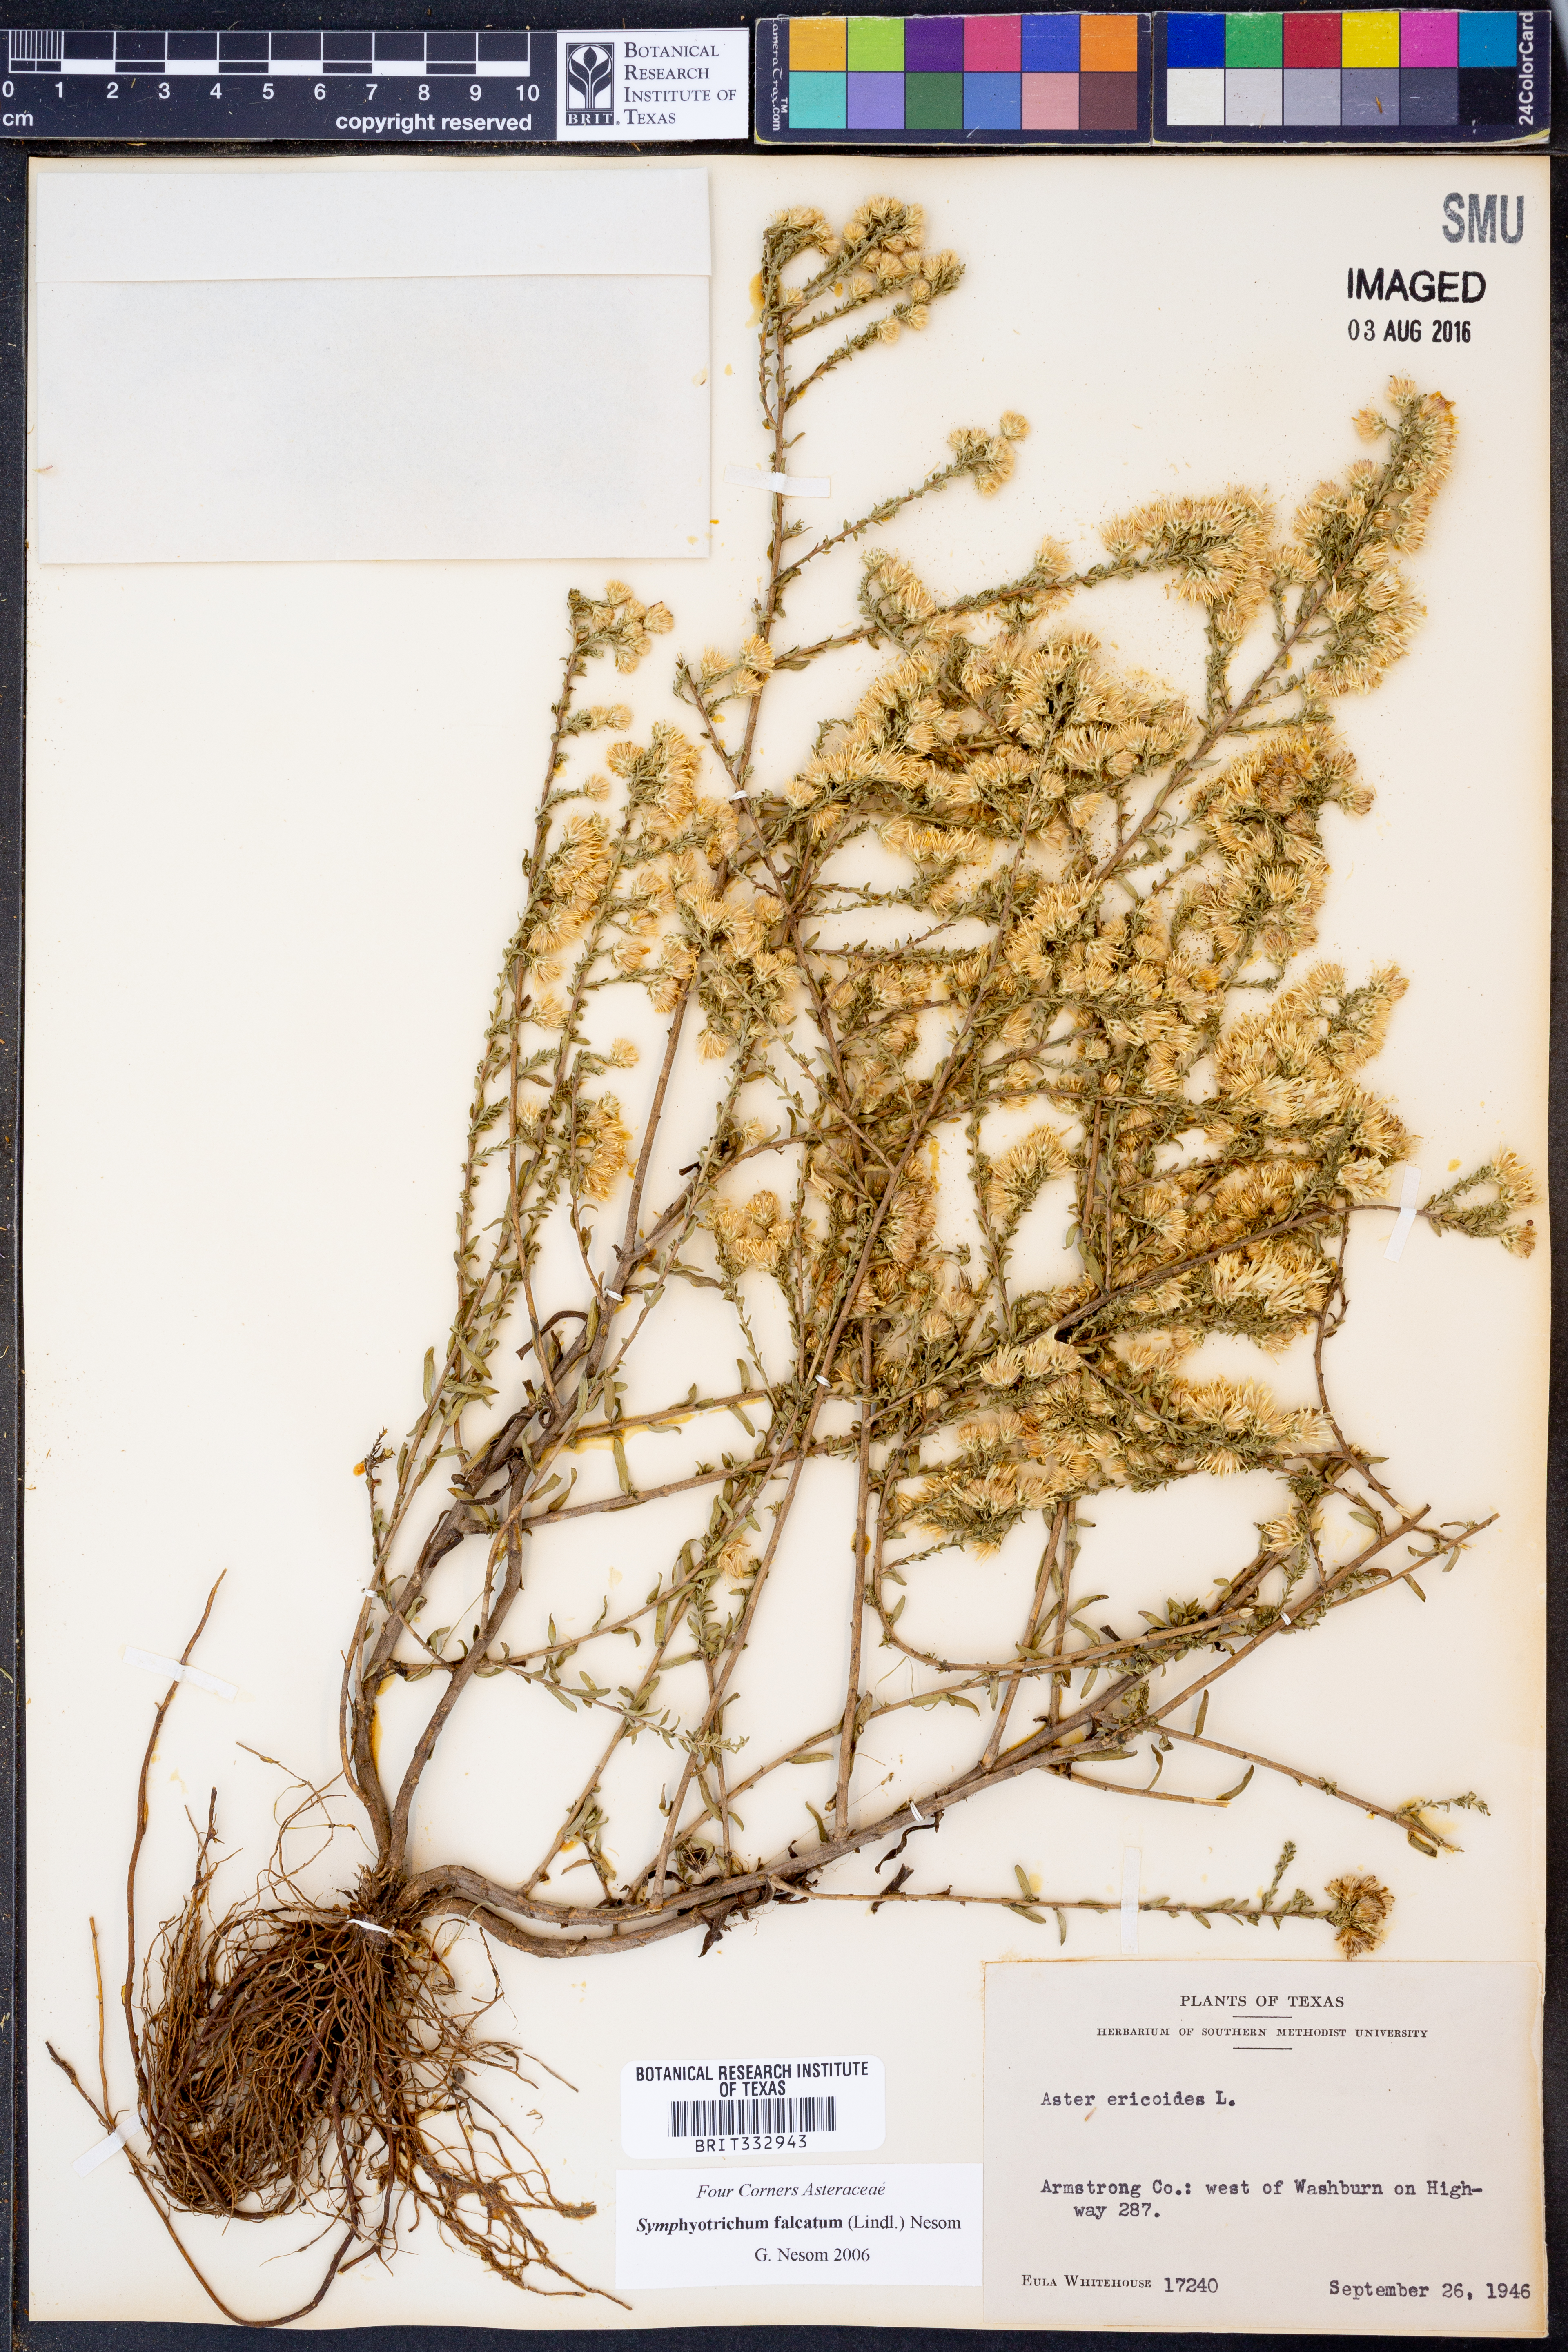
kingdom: Plantae
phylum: Tracheophyta
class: Magnoliopsida
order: Asterales
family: Asteraceae
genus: Symphyotrichum
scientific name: Symphyotrichum falcatum
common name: Creeping white prairie aster
